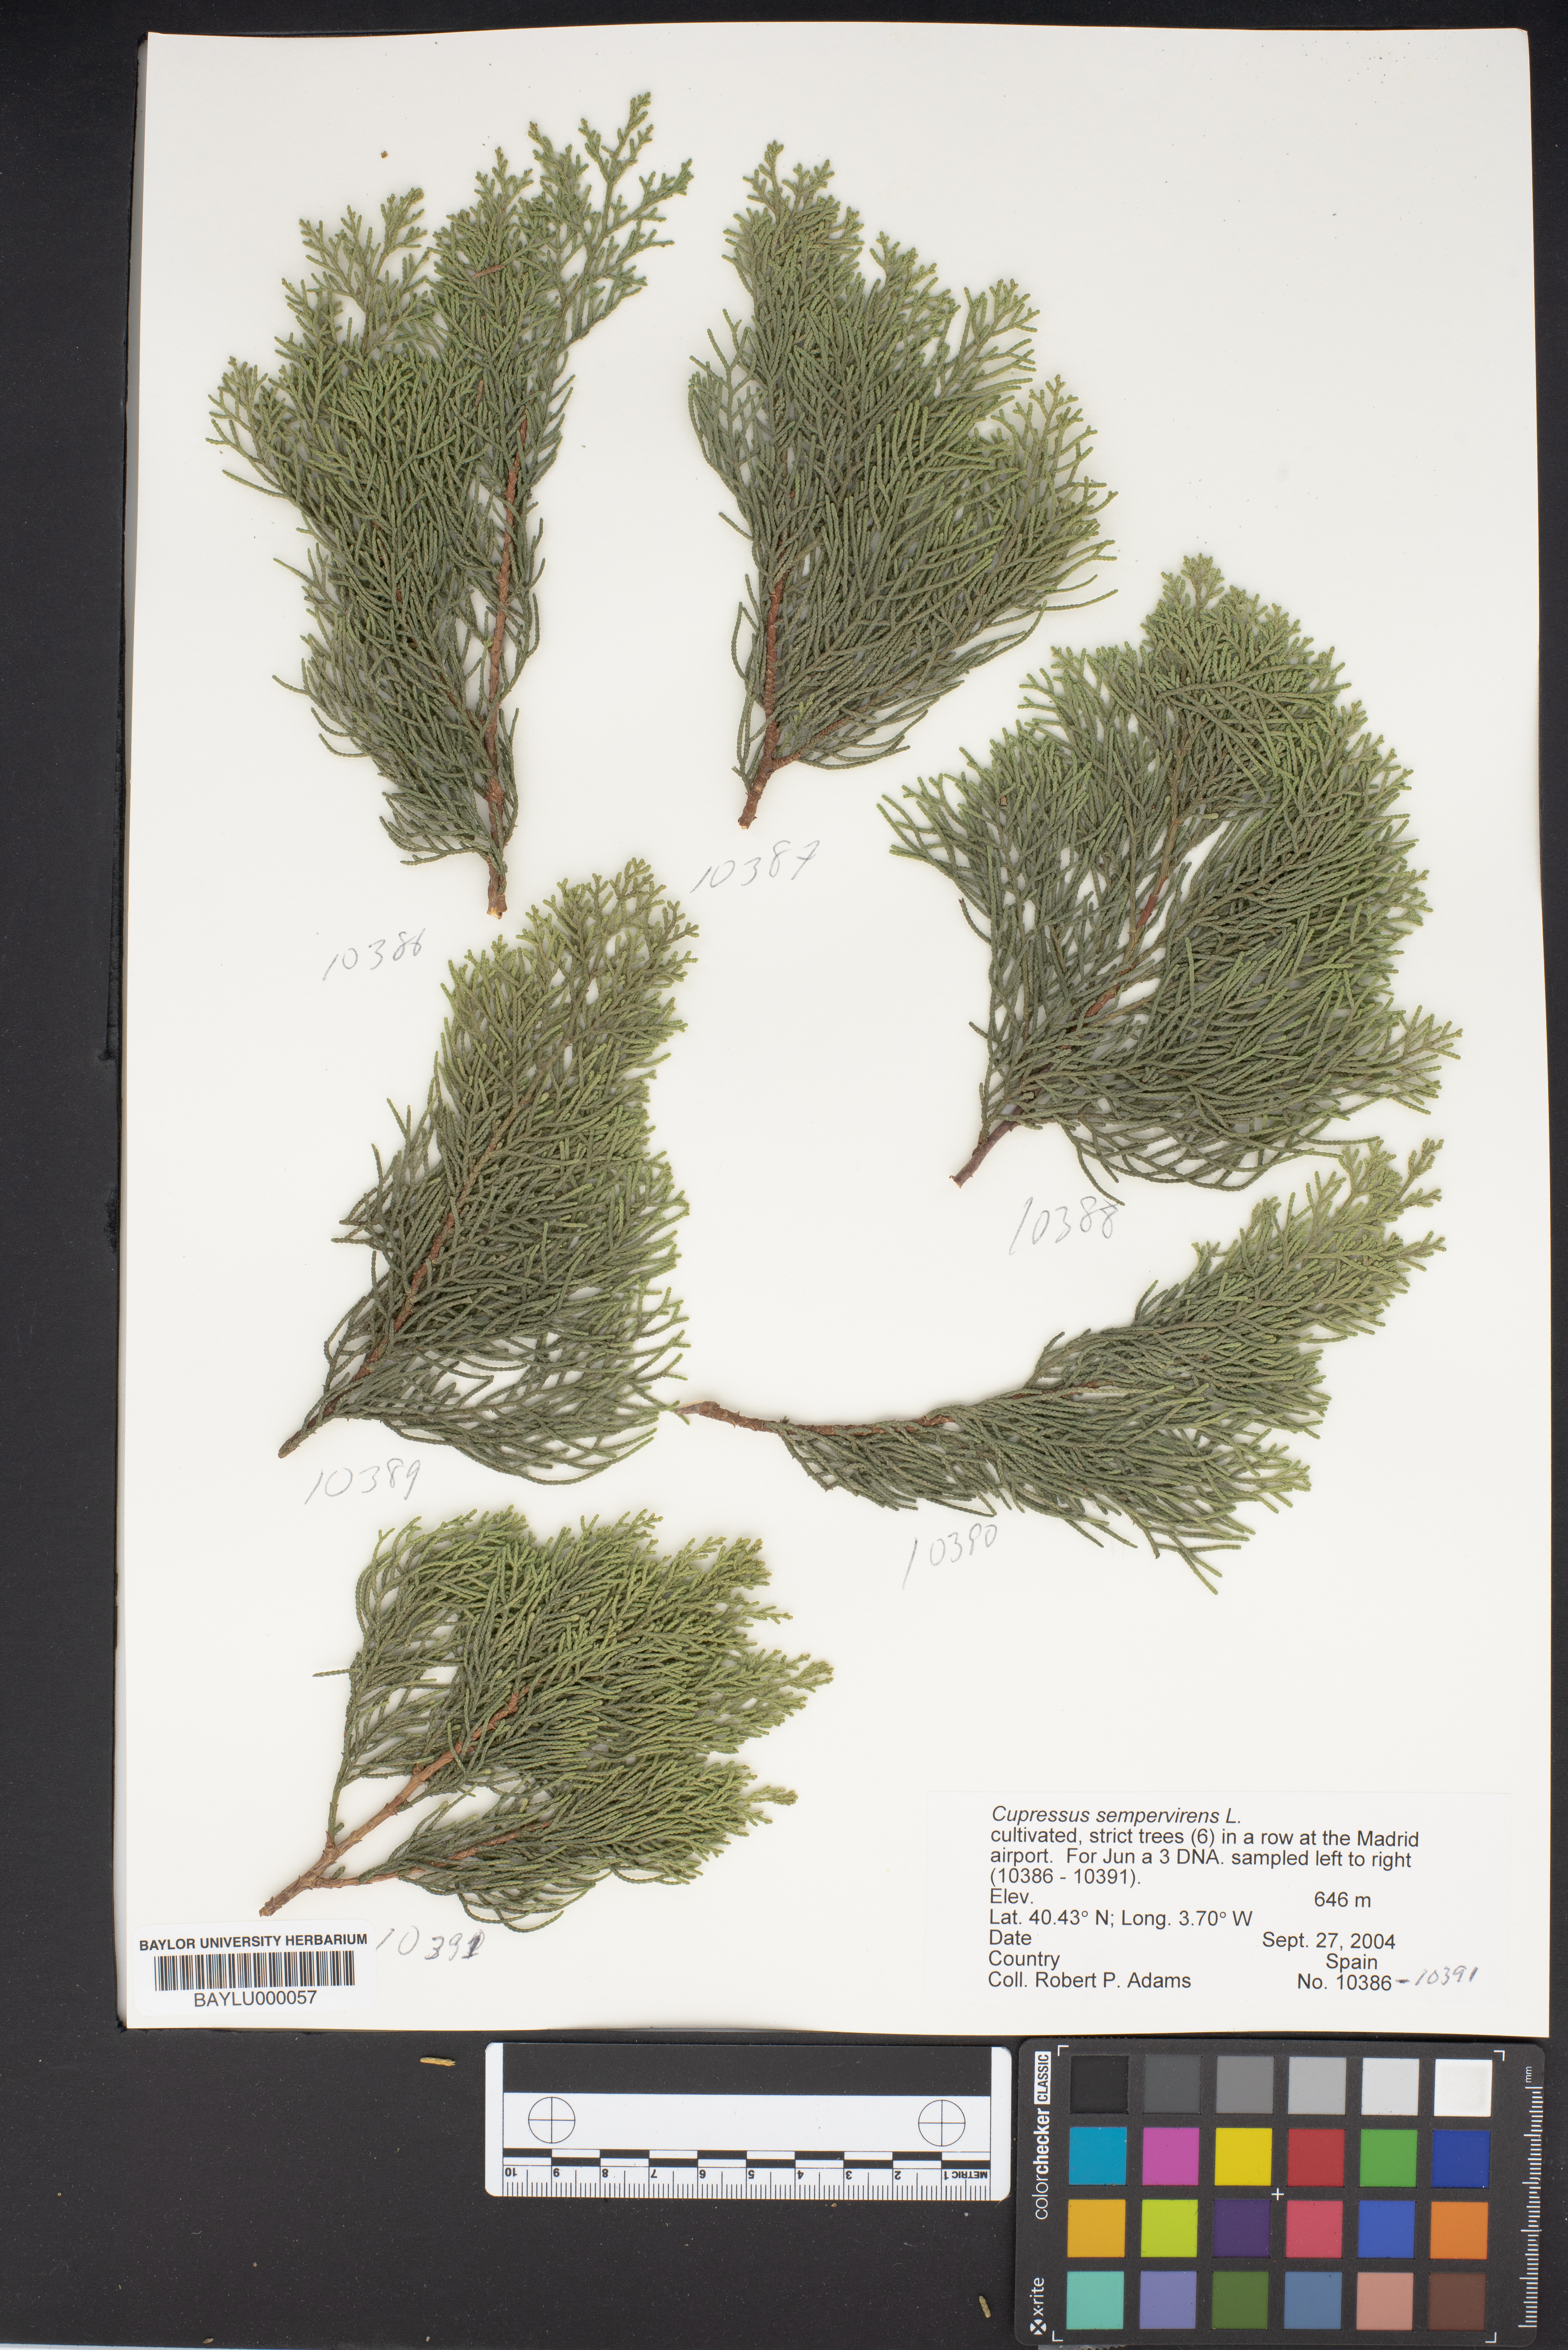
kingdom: Plantae
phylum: Tracheophyta
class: Pinopsida
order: Pinales
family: Cupressaceae
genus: Cupressus
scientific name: Cupressus sempervirens
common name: Italian cypress
